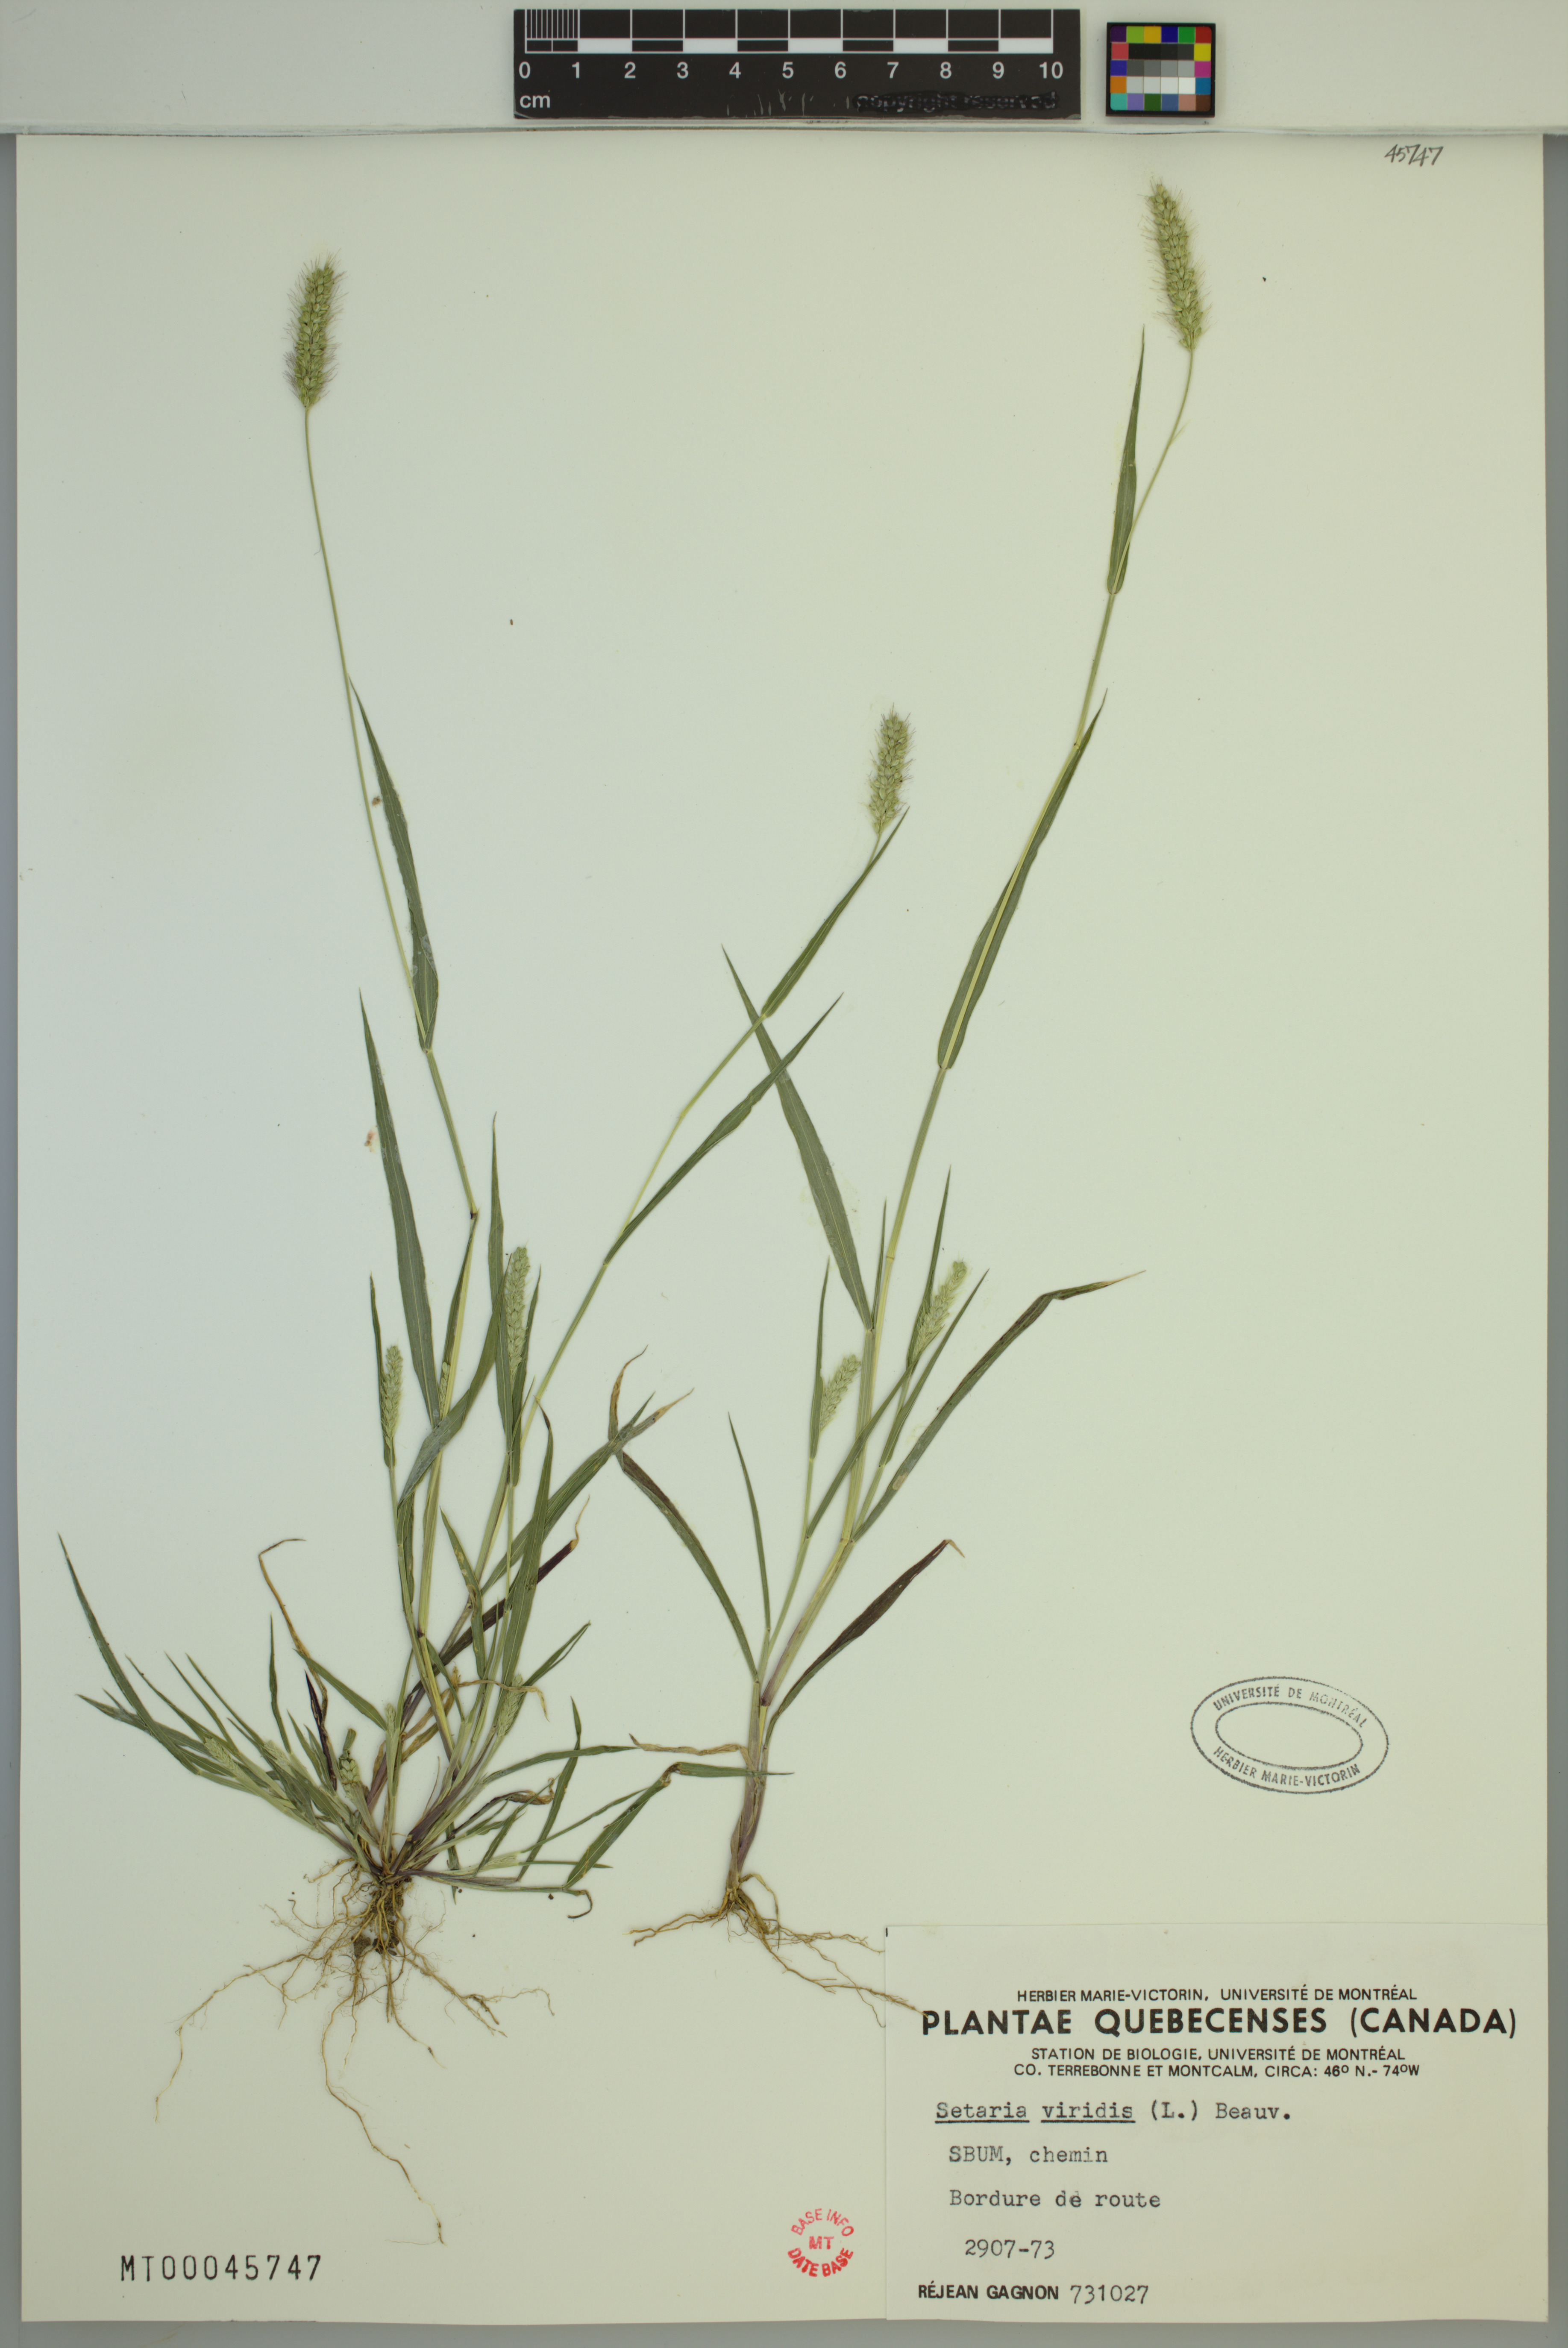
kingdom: Plantae
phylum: Tracheophyta
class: Liliopsida
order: Poales
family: Poaceae
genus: Setaria
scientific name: Setaria viridis
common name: Green bristlegrass
